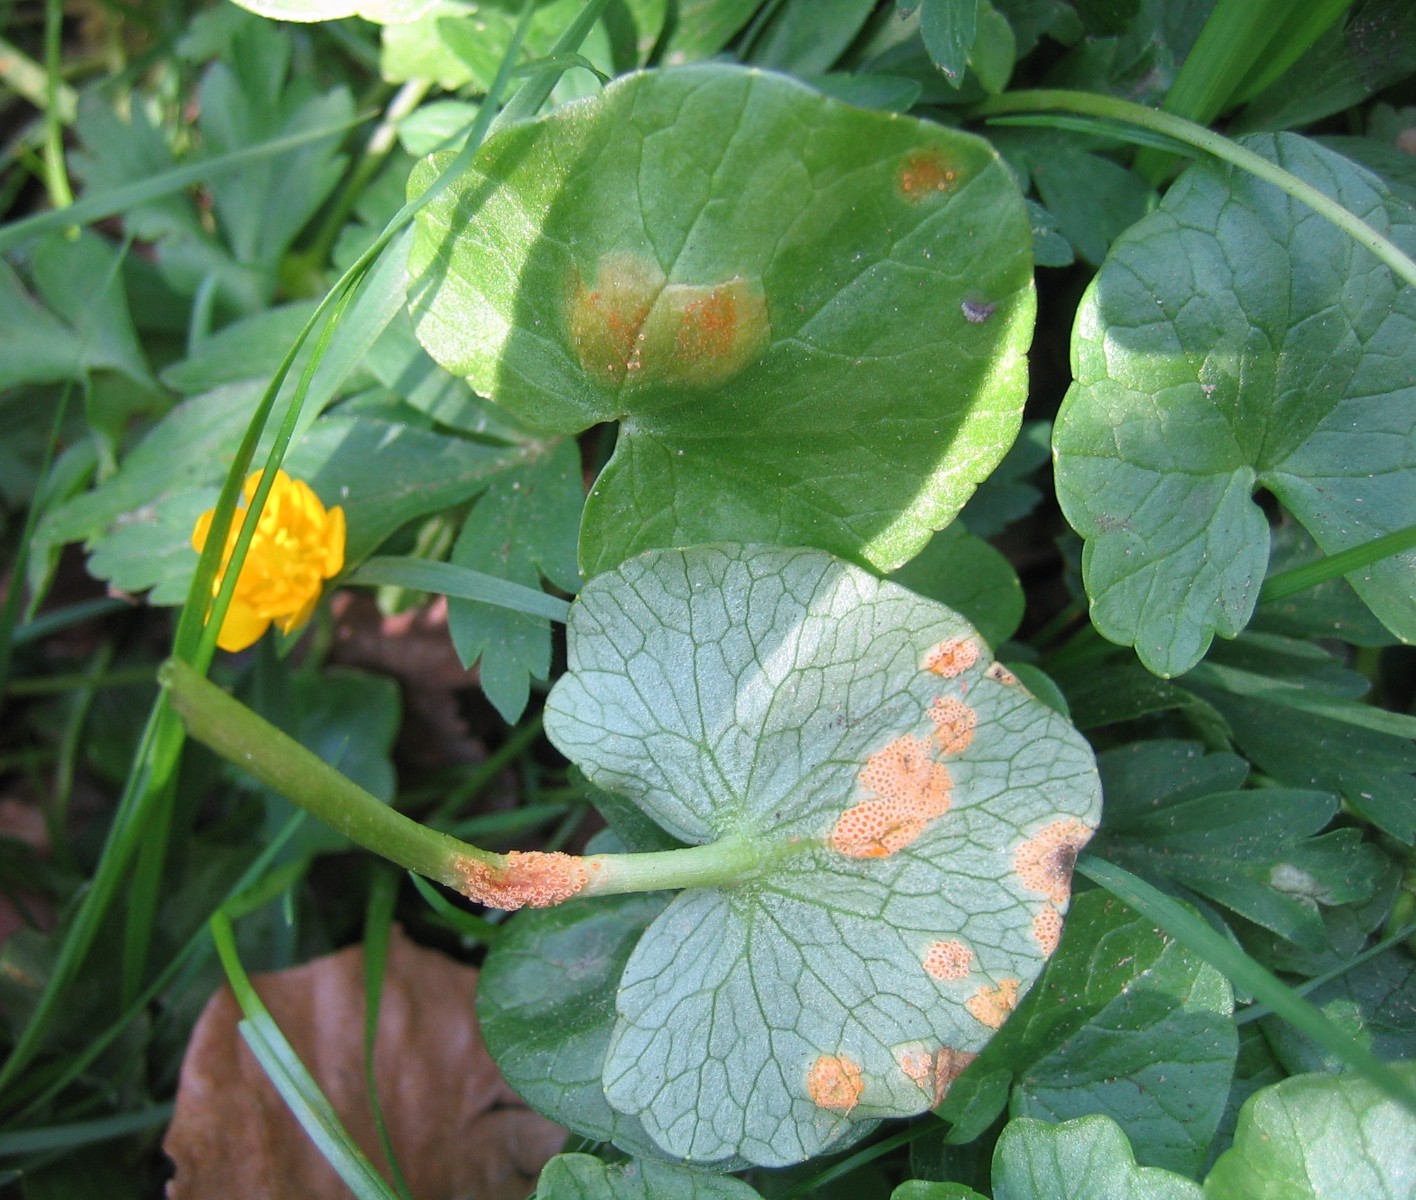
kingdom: Fungi
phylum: Basidiomycota
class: Pucciniomycetes
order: Pucciniales
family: Pucciniaceae
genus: Uromyces
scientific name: Uromyces dactylidis
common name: ranunkel-encellerust
